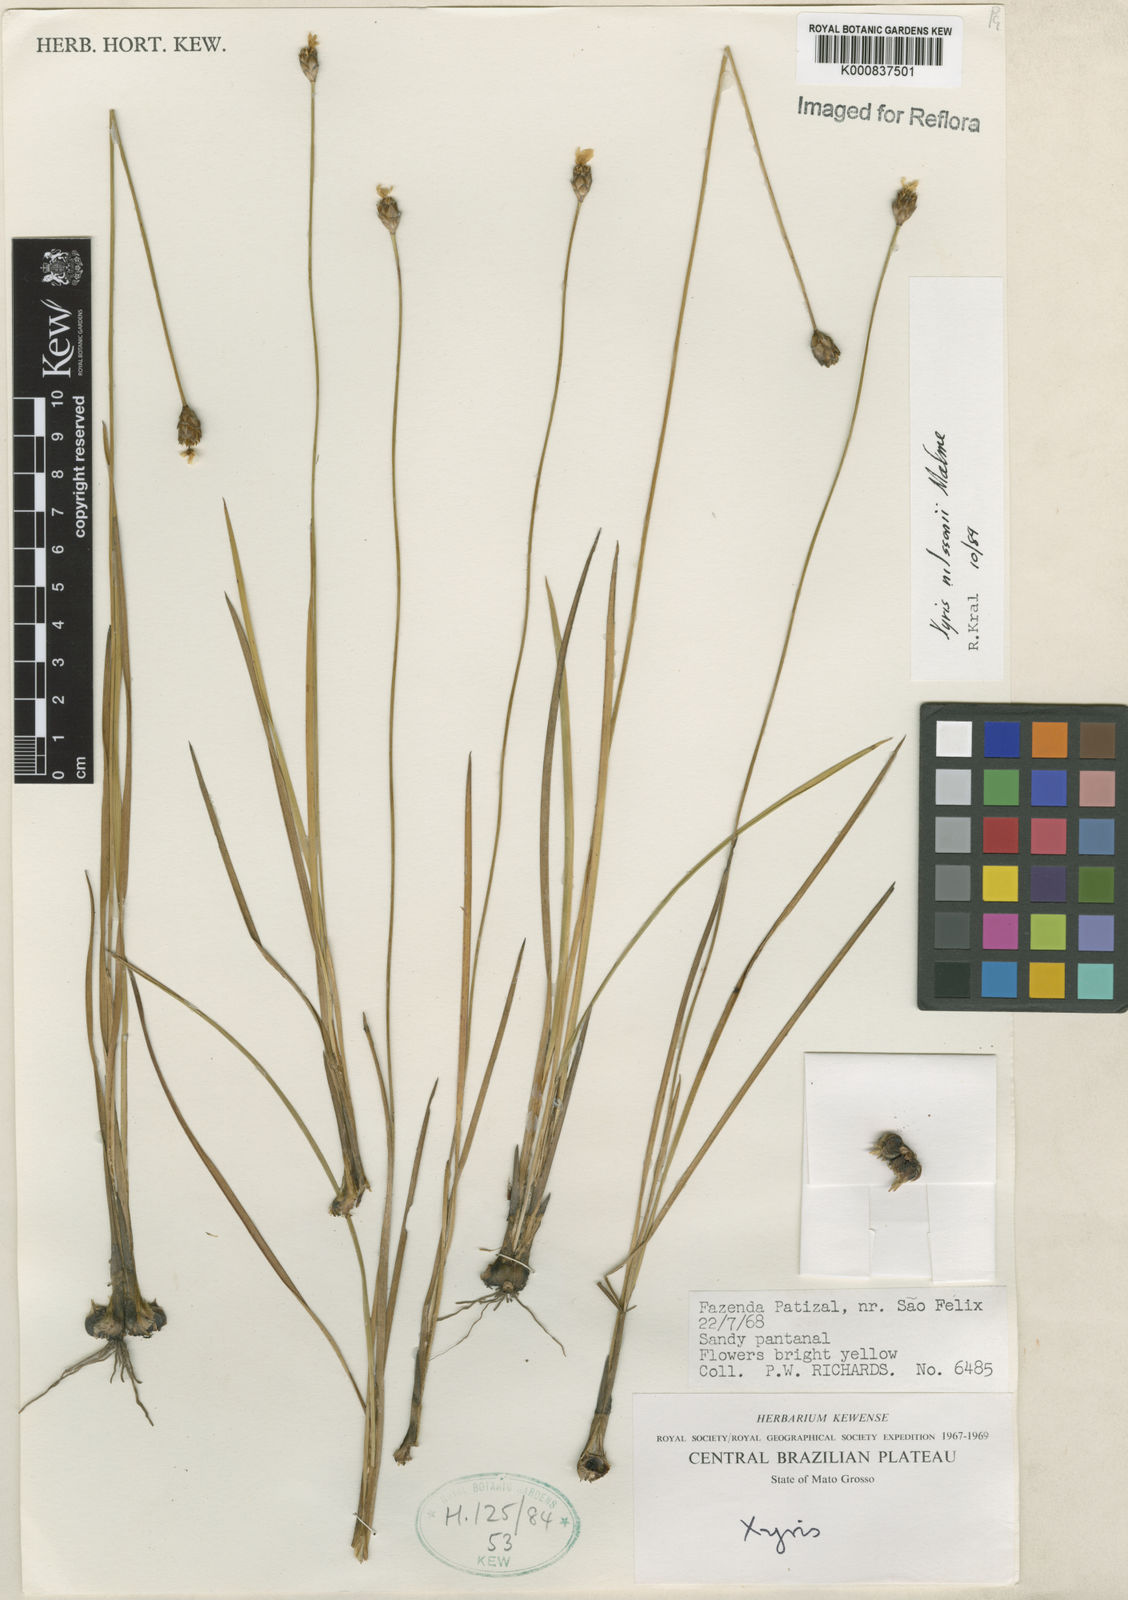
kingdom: Plantae
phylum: Tracheophyta
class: Liliopsida
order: Poales
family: Xyridaceae
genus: Xyris
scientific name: Xyris nilssonii
